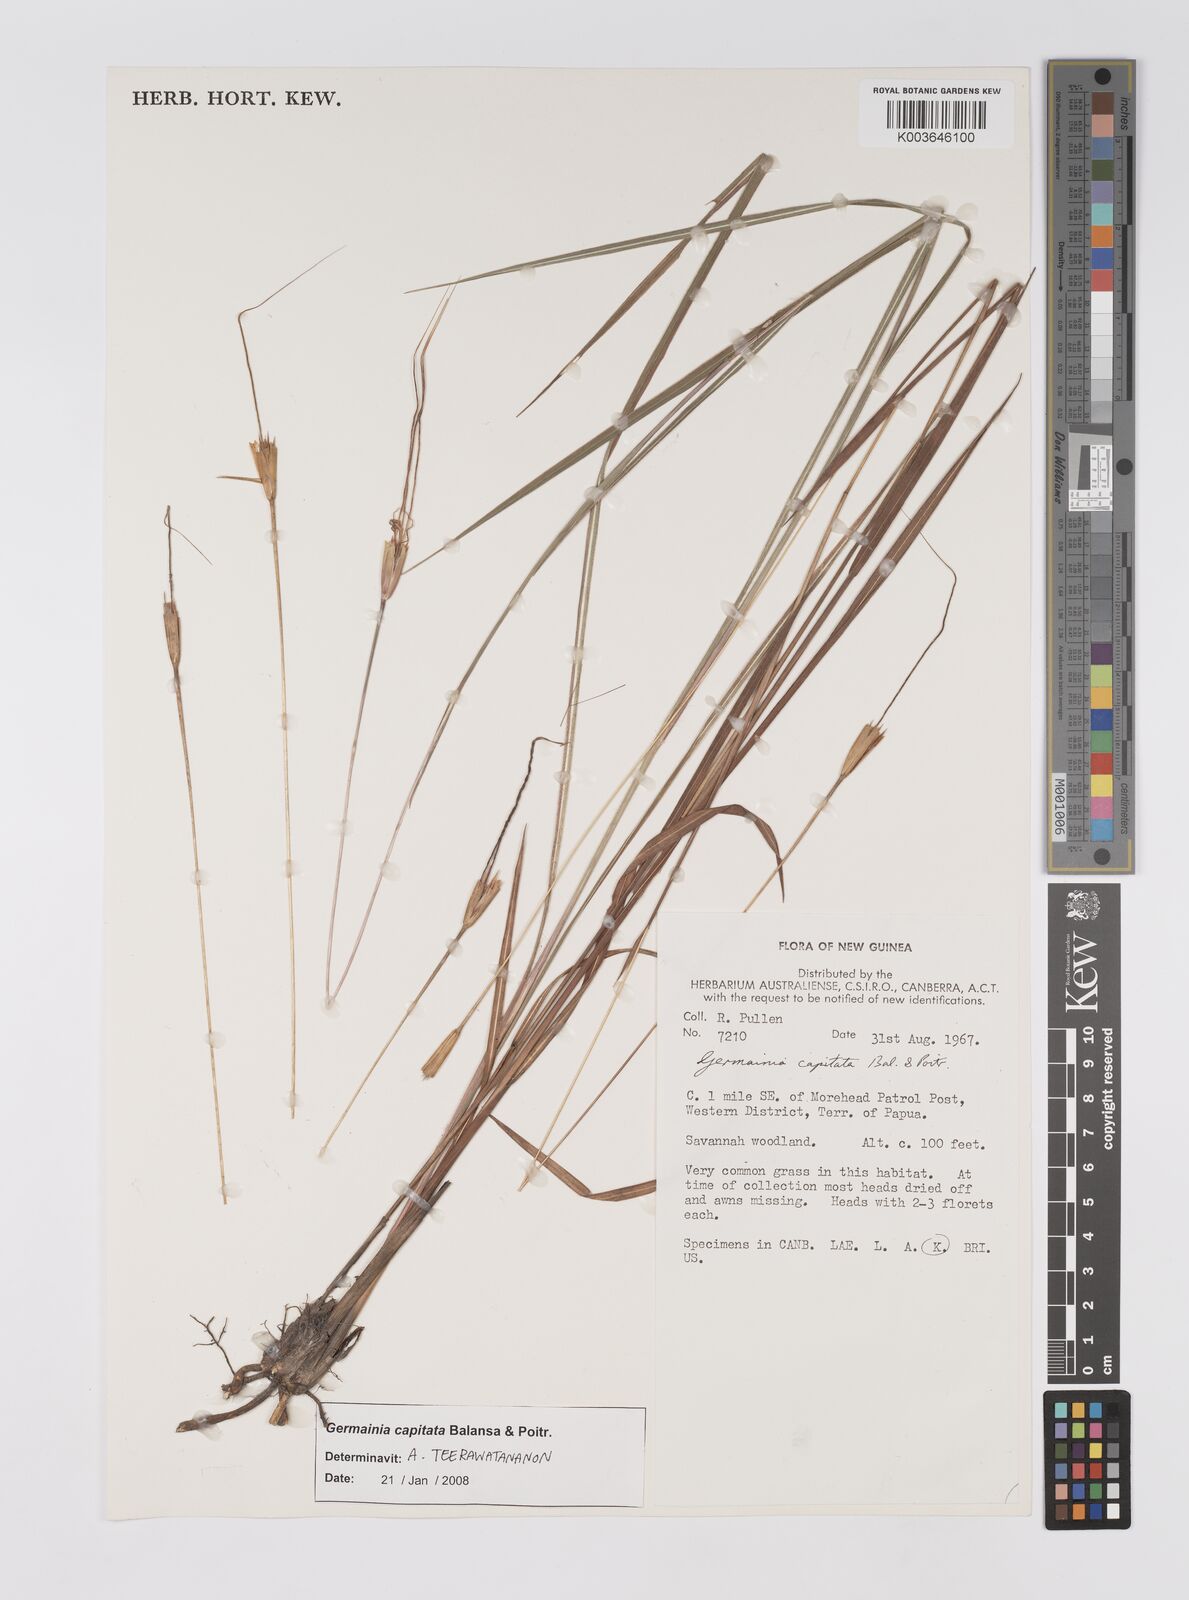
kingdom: Plantae
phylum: Tracheophyta
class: Liliopsida
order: Poales
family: Poaceae
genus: Germainia
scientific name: Germainia capitata
